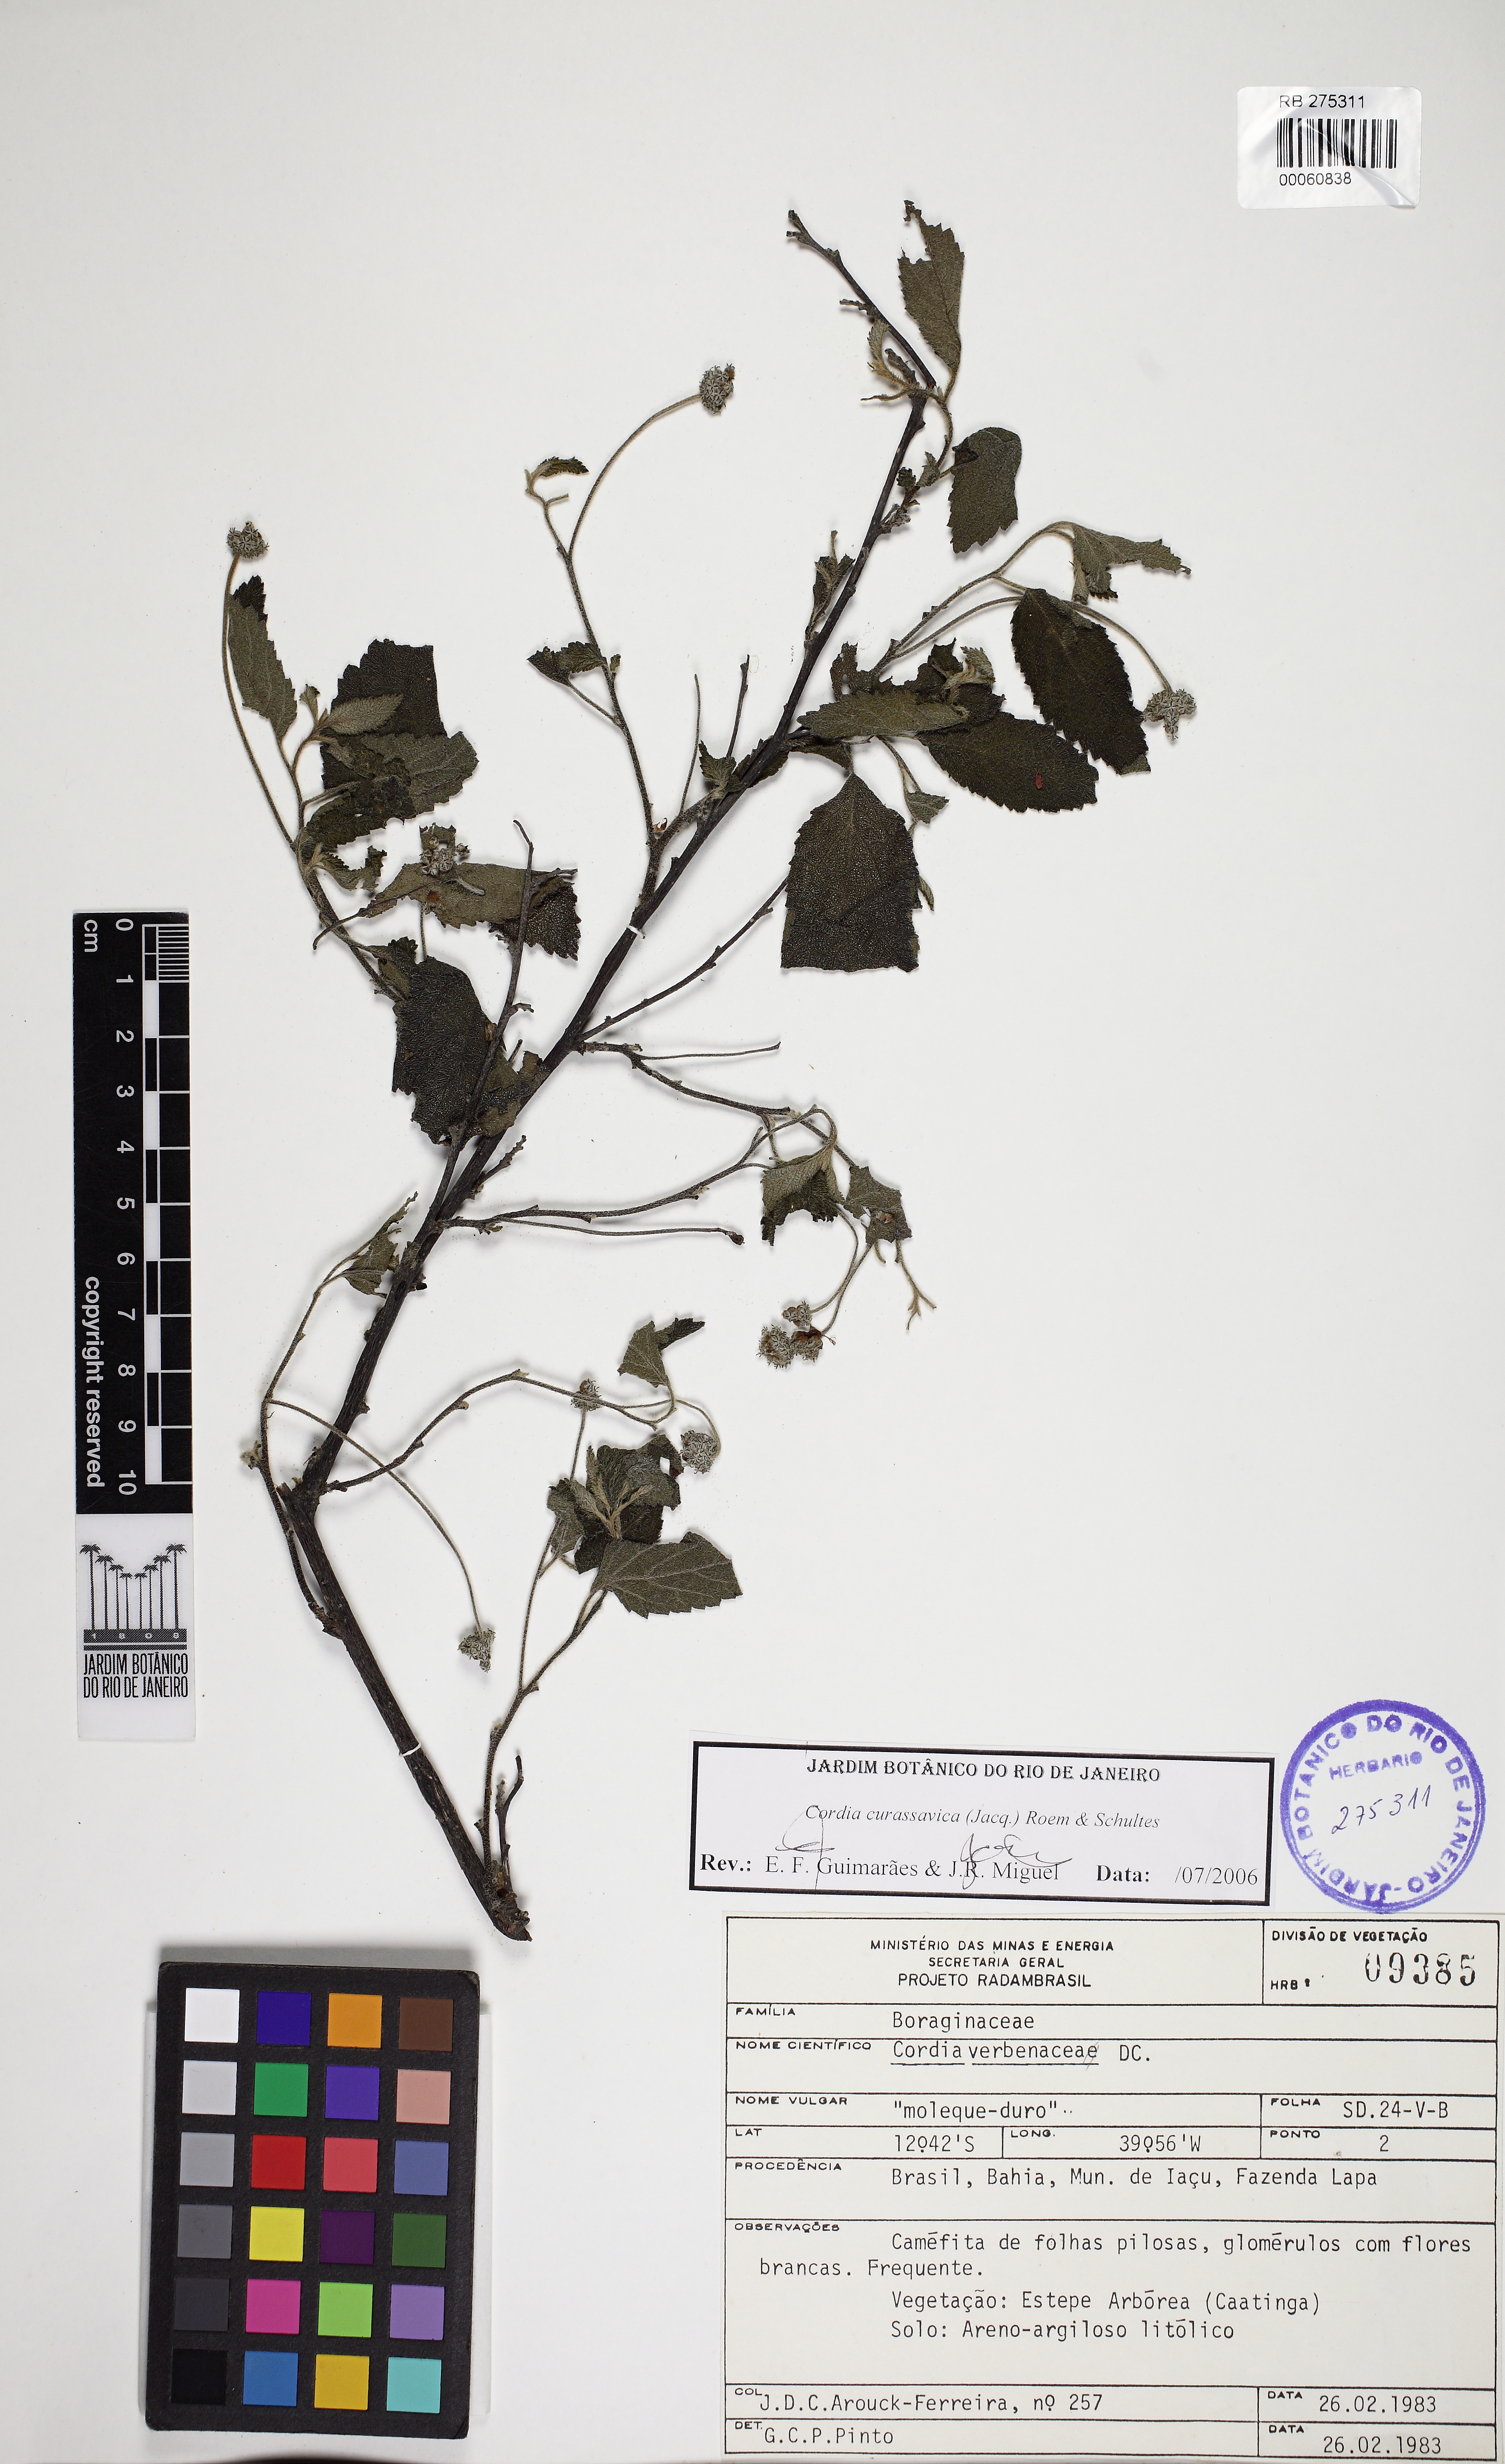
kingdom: Plantae
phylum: Tracheophyta
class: Magnoliopsida
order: Boraginales
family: Cordiaceae
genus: Varronia
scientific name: Varronia curassavica
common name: Black sage
